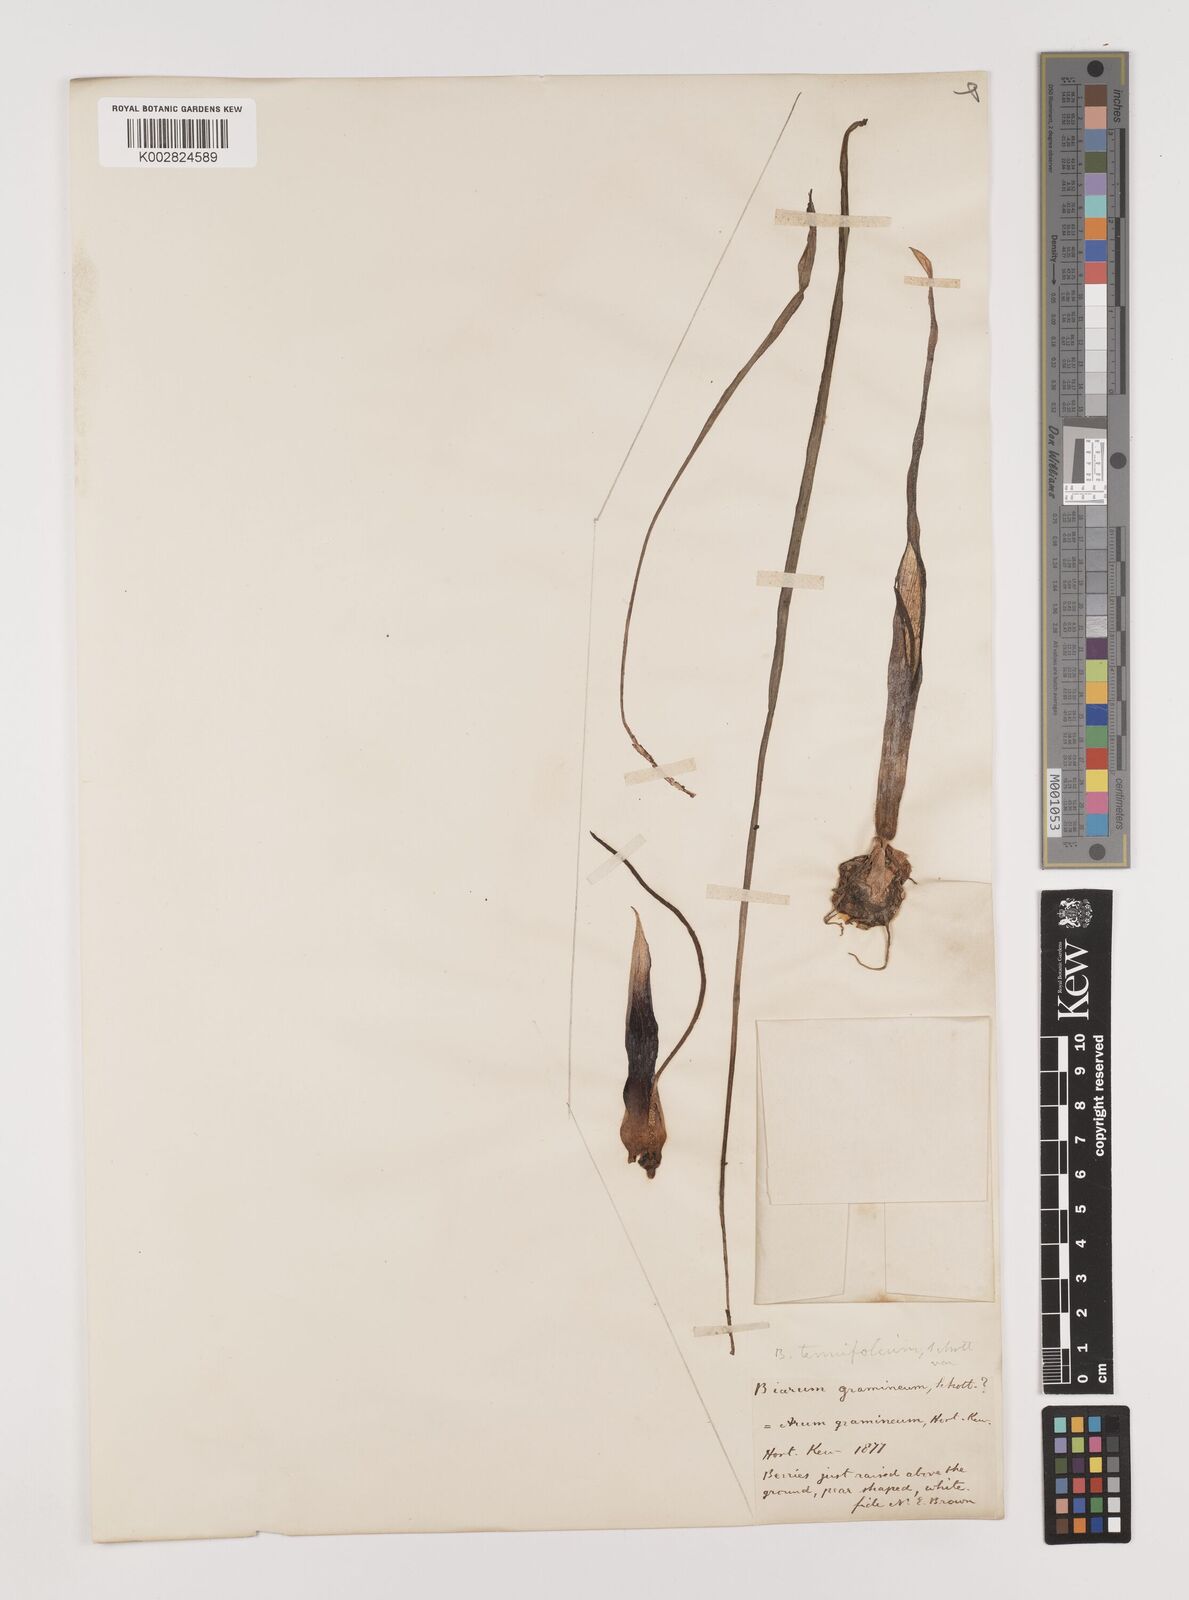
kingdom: Plantae
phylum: Tracheophyta
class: Liliopsida
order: Alismatales
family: Araceae
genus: Biarum
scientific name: Biarum tenuifolium
